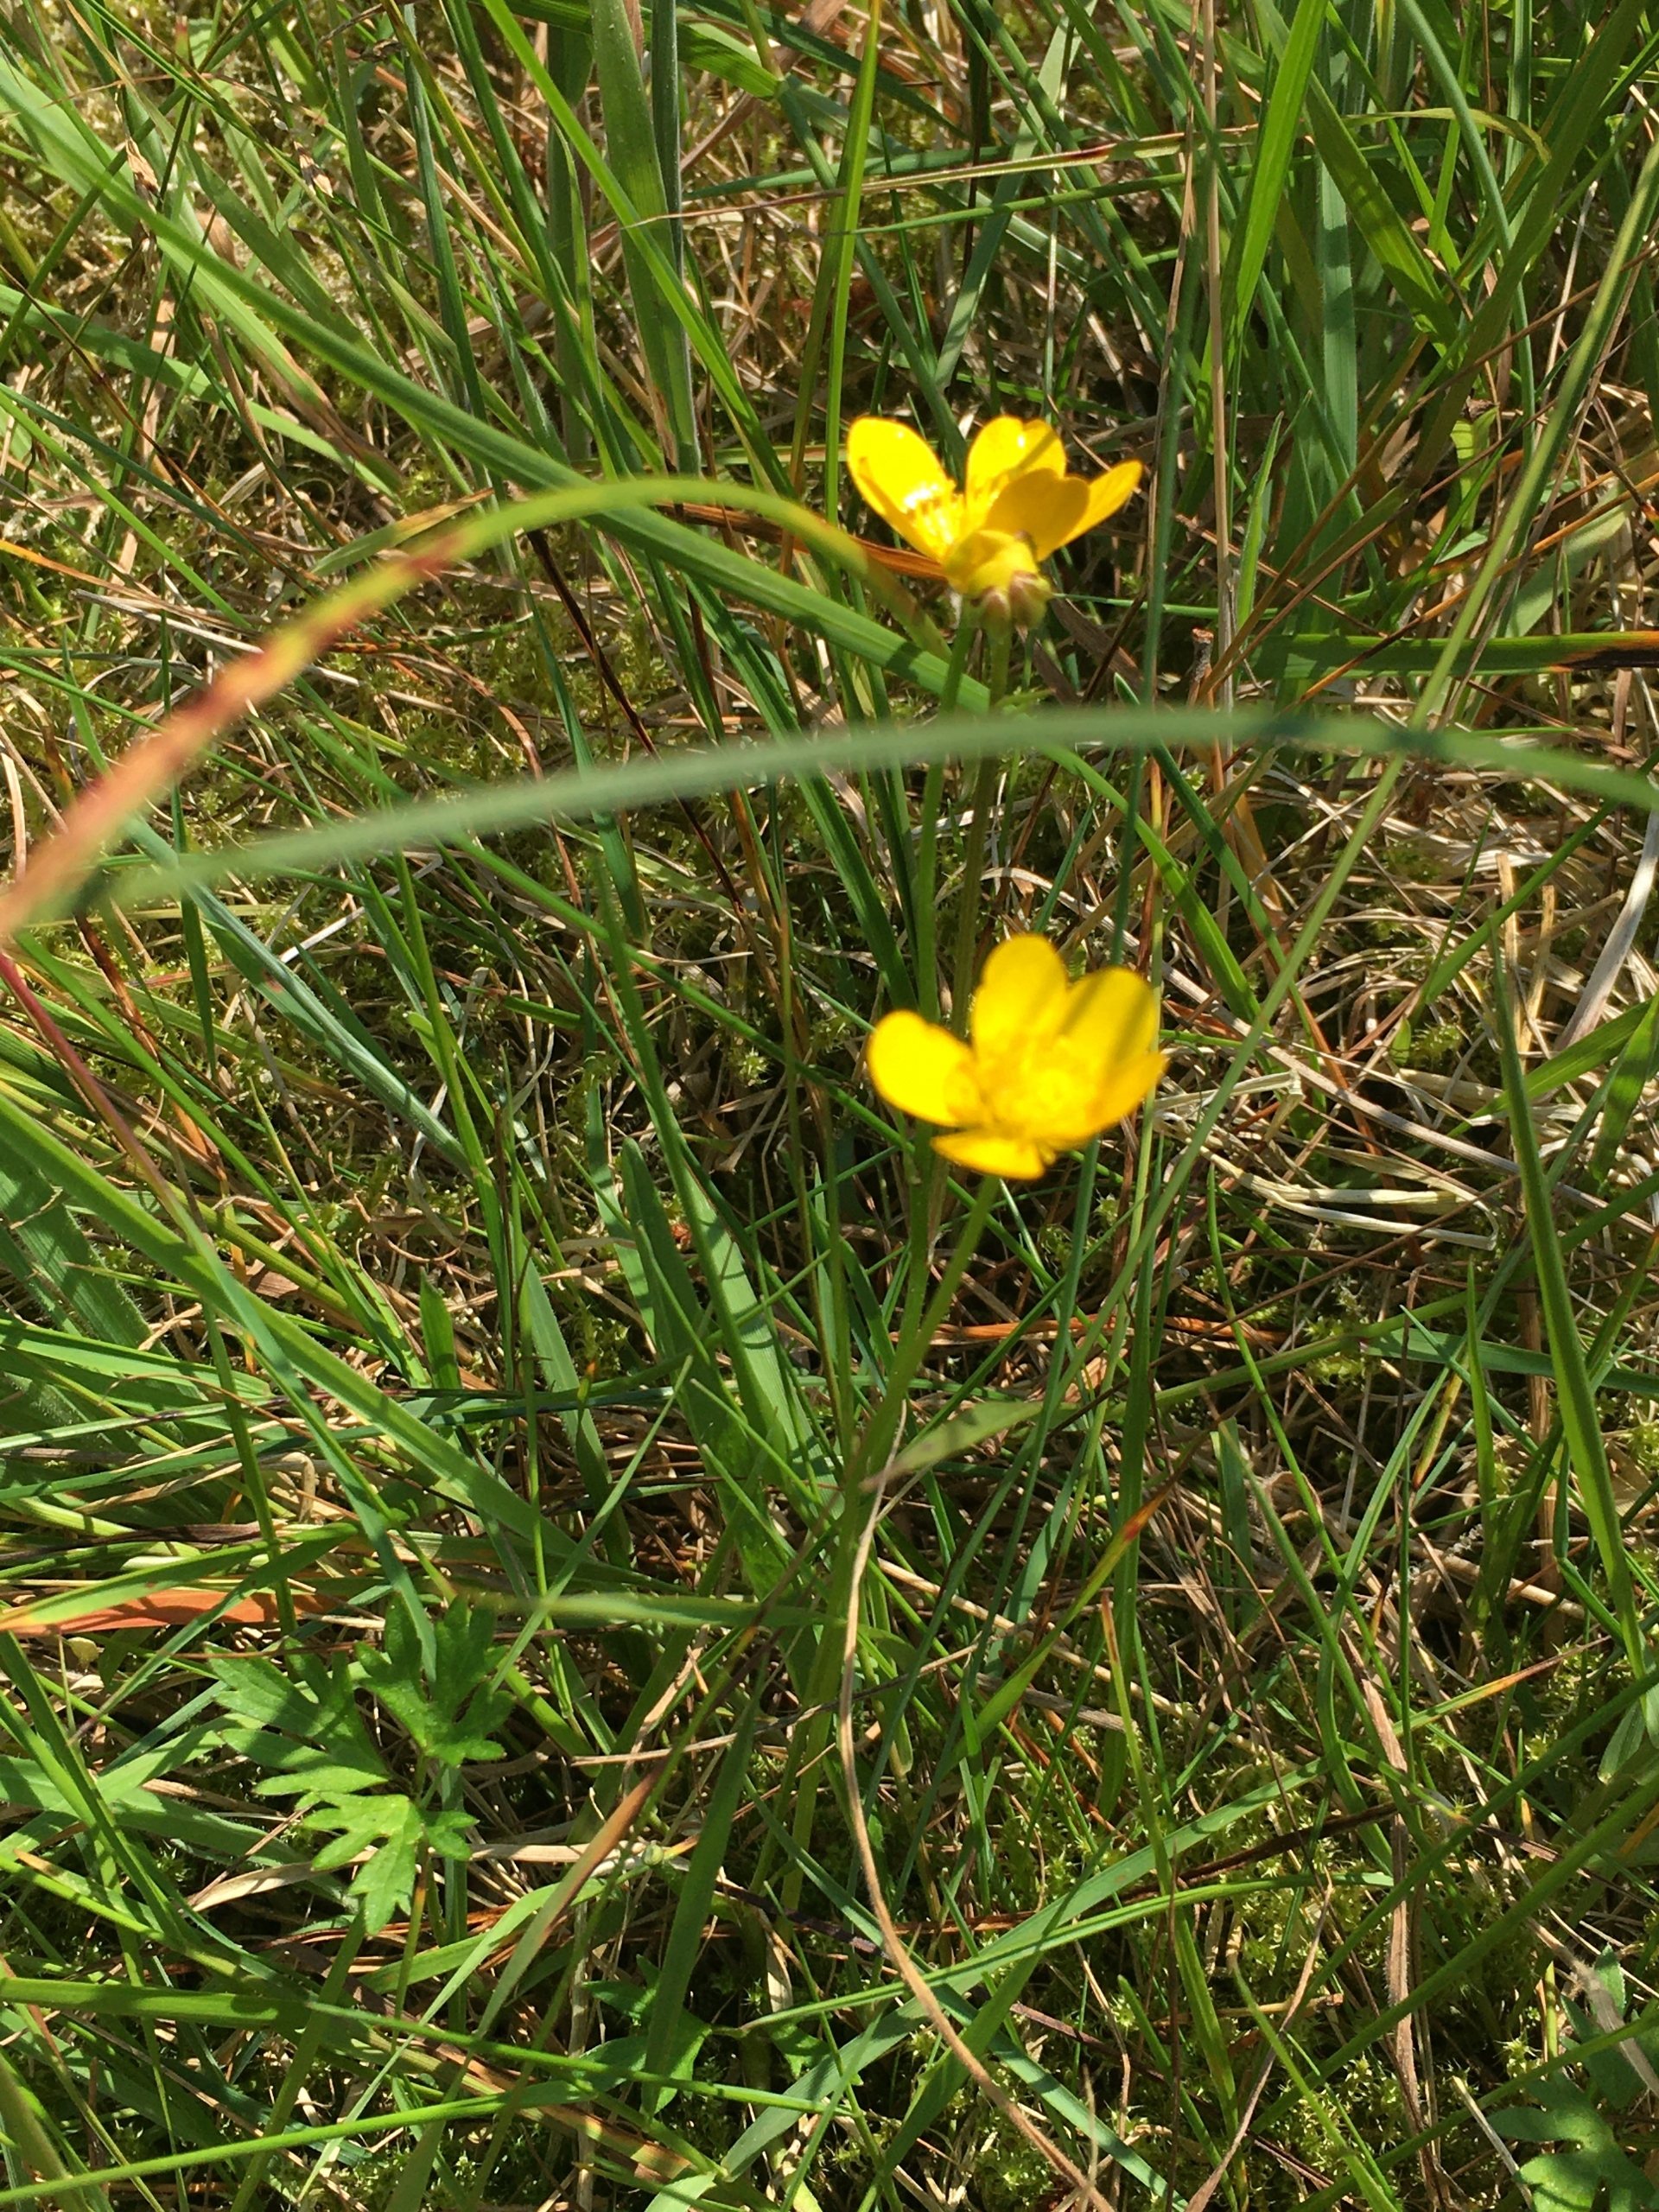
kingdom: Plantae
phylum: Tracheophyta
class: Magnoliopsida
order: Ranunculales
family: Ranunculaceae
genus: Ranunculus
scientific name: Ranunculus repens
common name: Lav ranunkel
